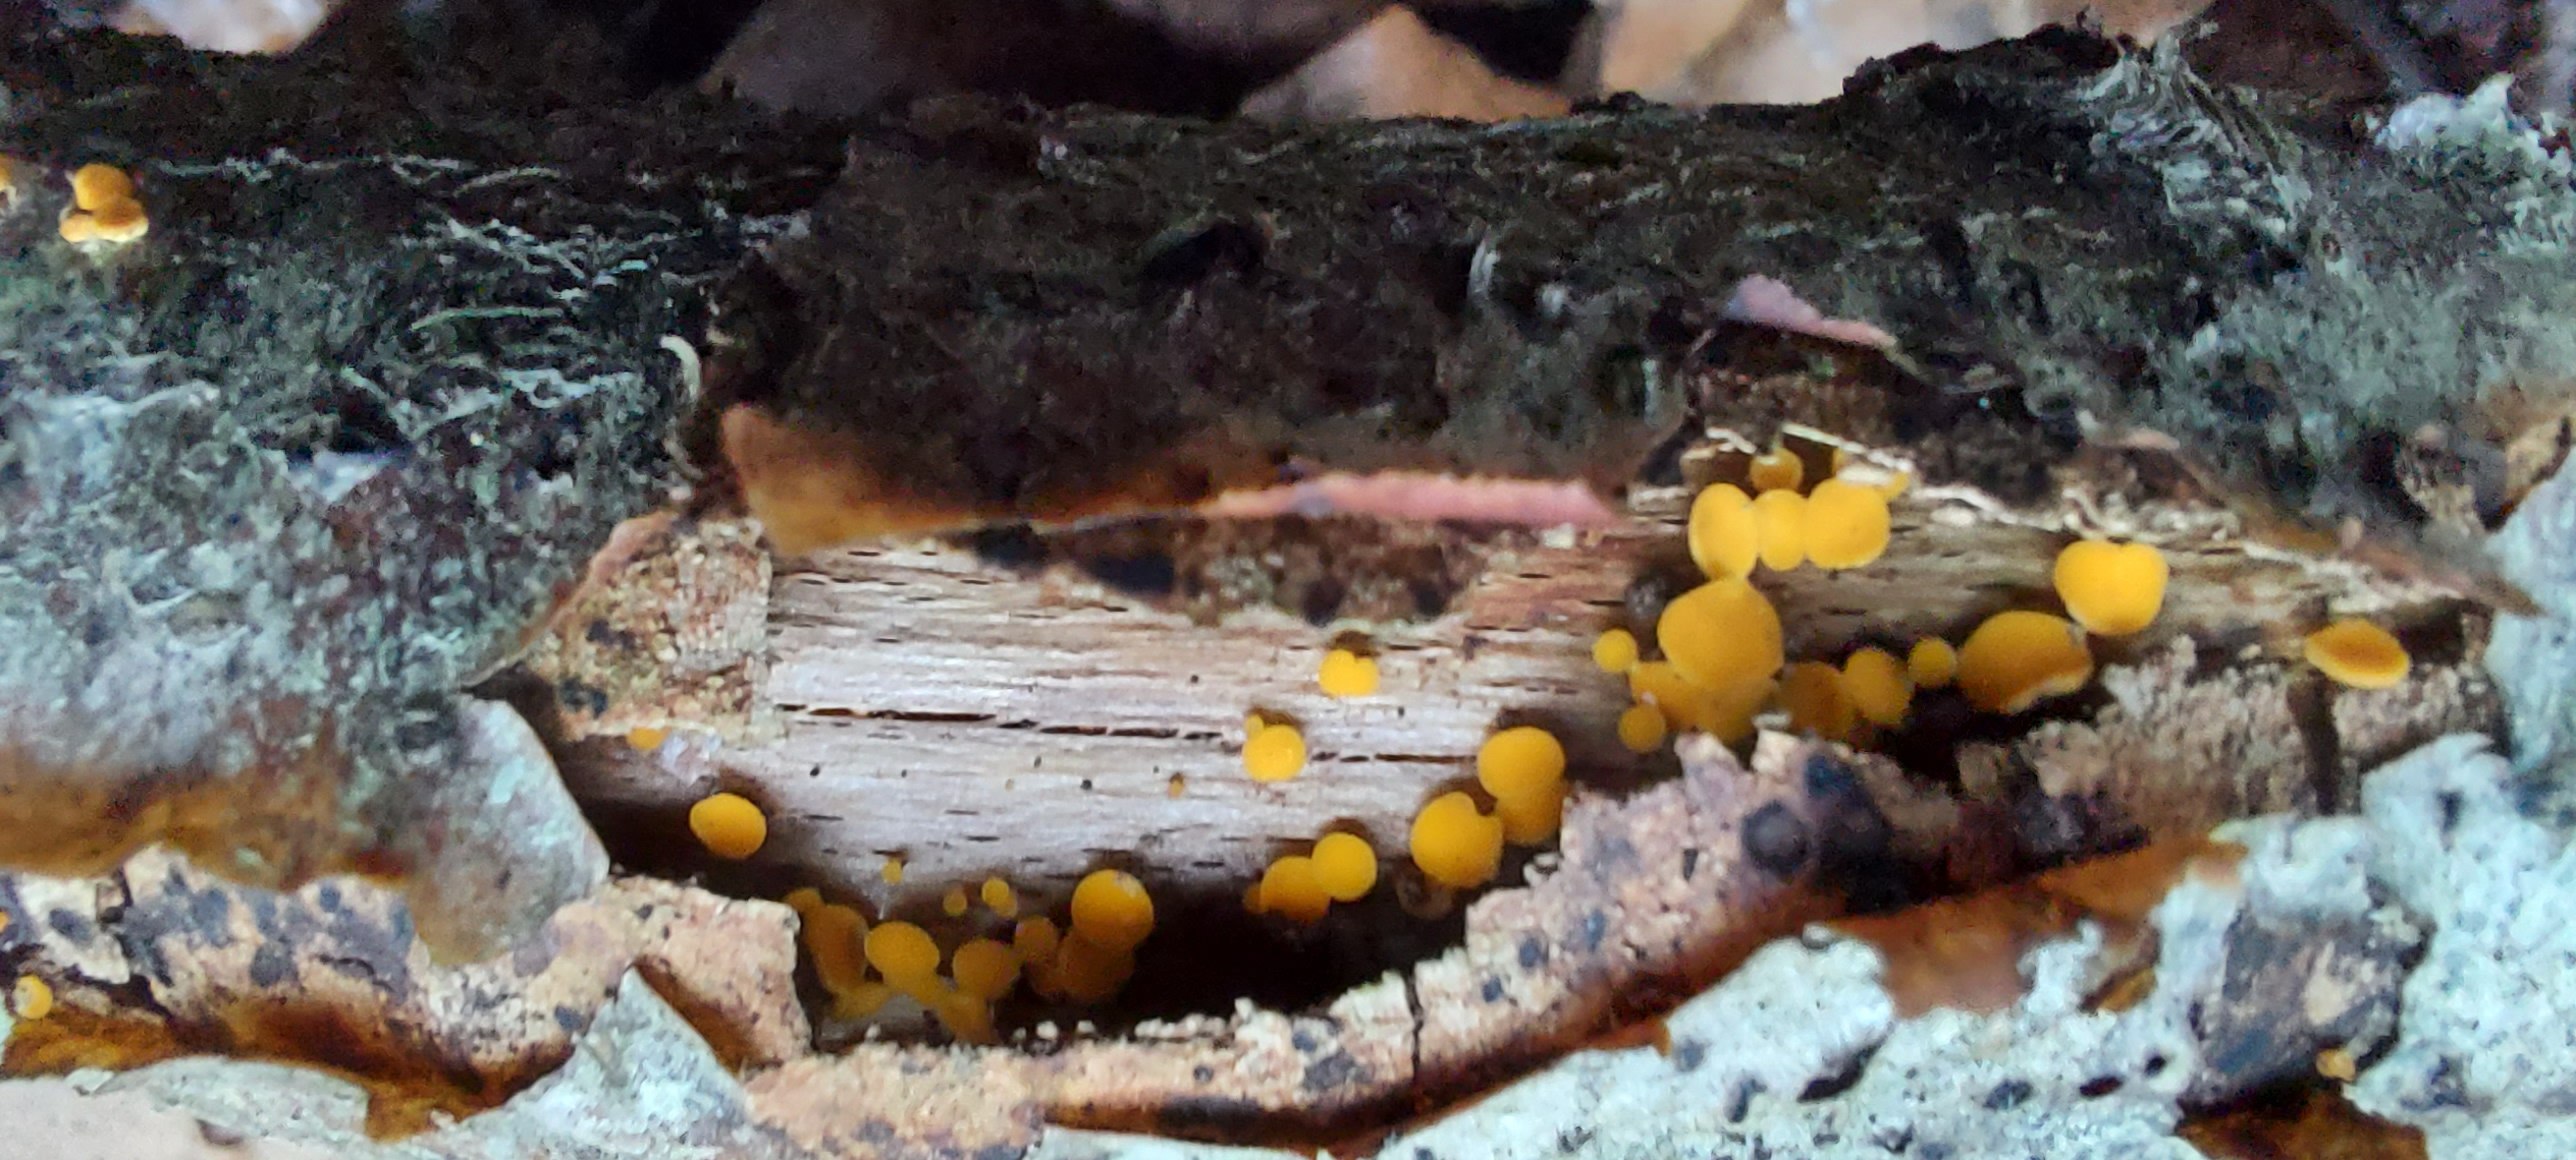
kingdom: Fungi
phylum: Ascomycota
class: Leotiomycetes
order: Helotiales
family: Pezizellaceae
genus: Calycina
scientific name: Calycina citrina
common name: almindelig gulskive
